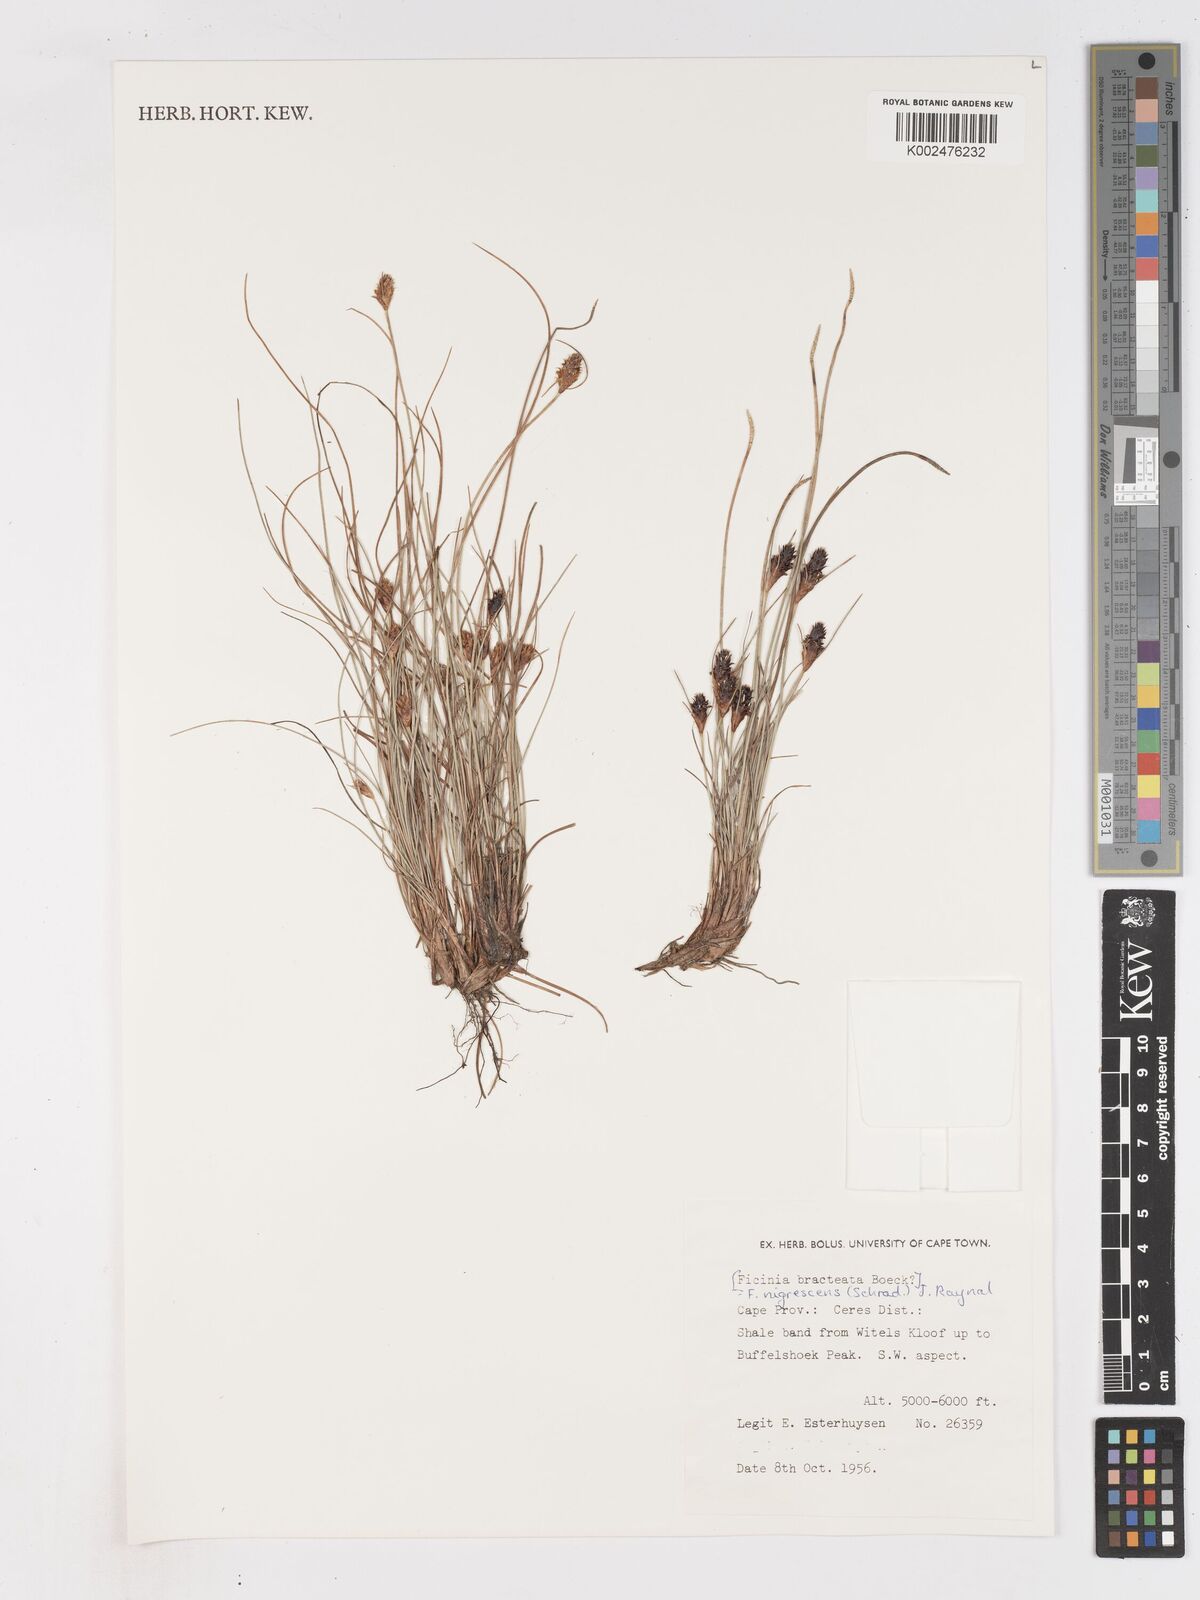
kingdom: Plantae
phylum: Tracheophyta
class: Liliopsida
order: Poales
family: Cyperaceae
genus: Ficinia
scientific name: Ficinia nigrescens
